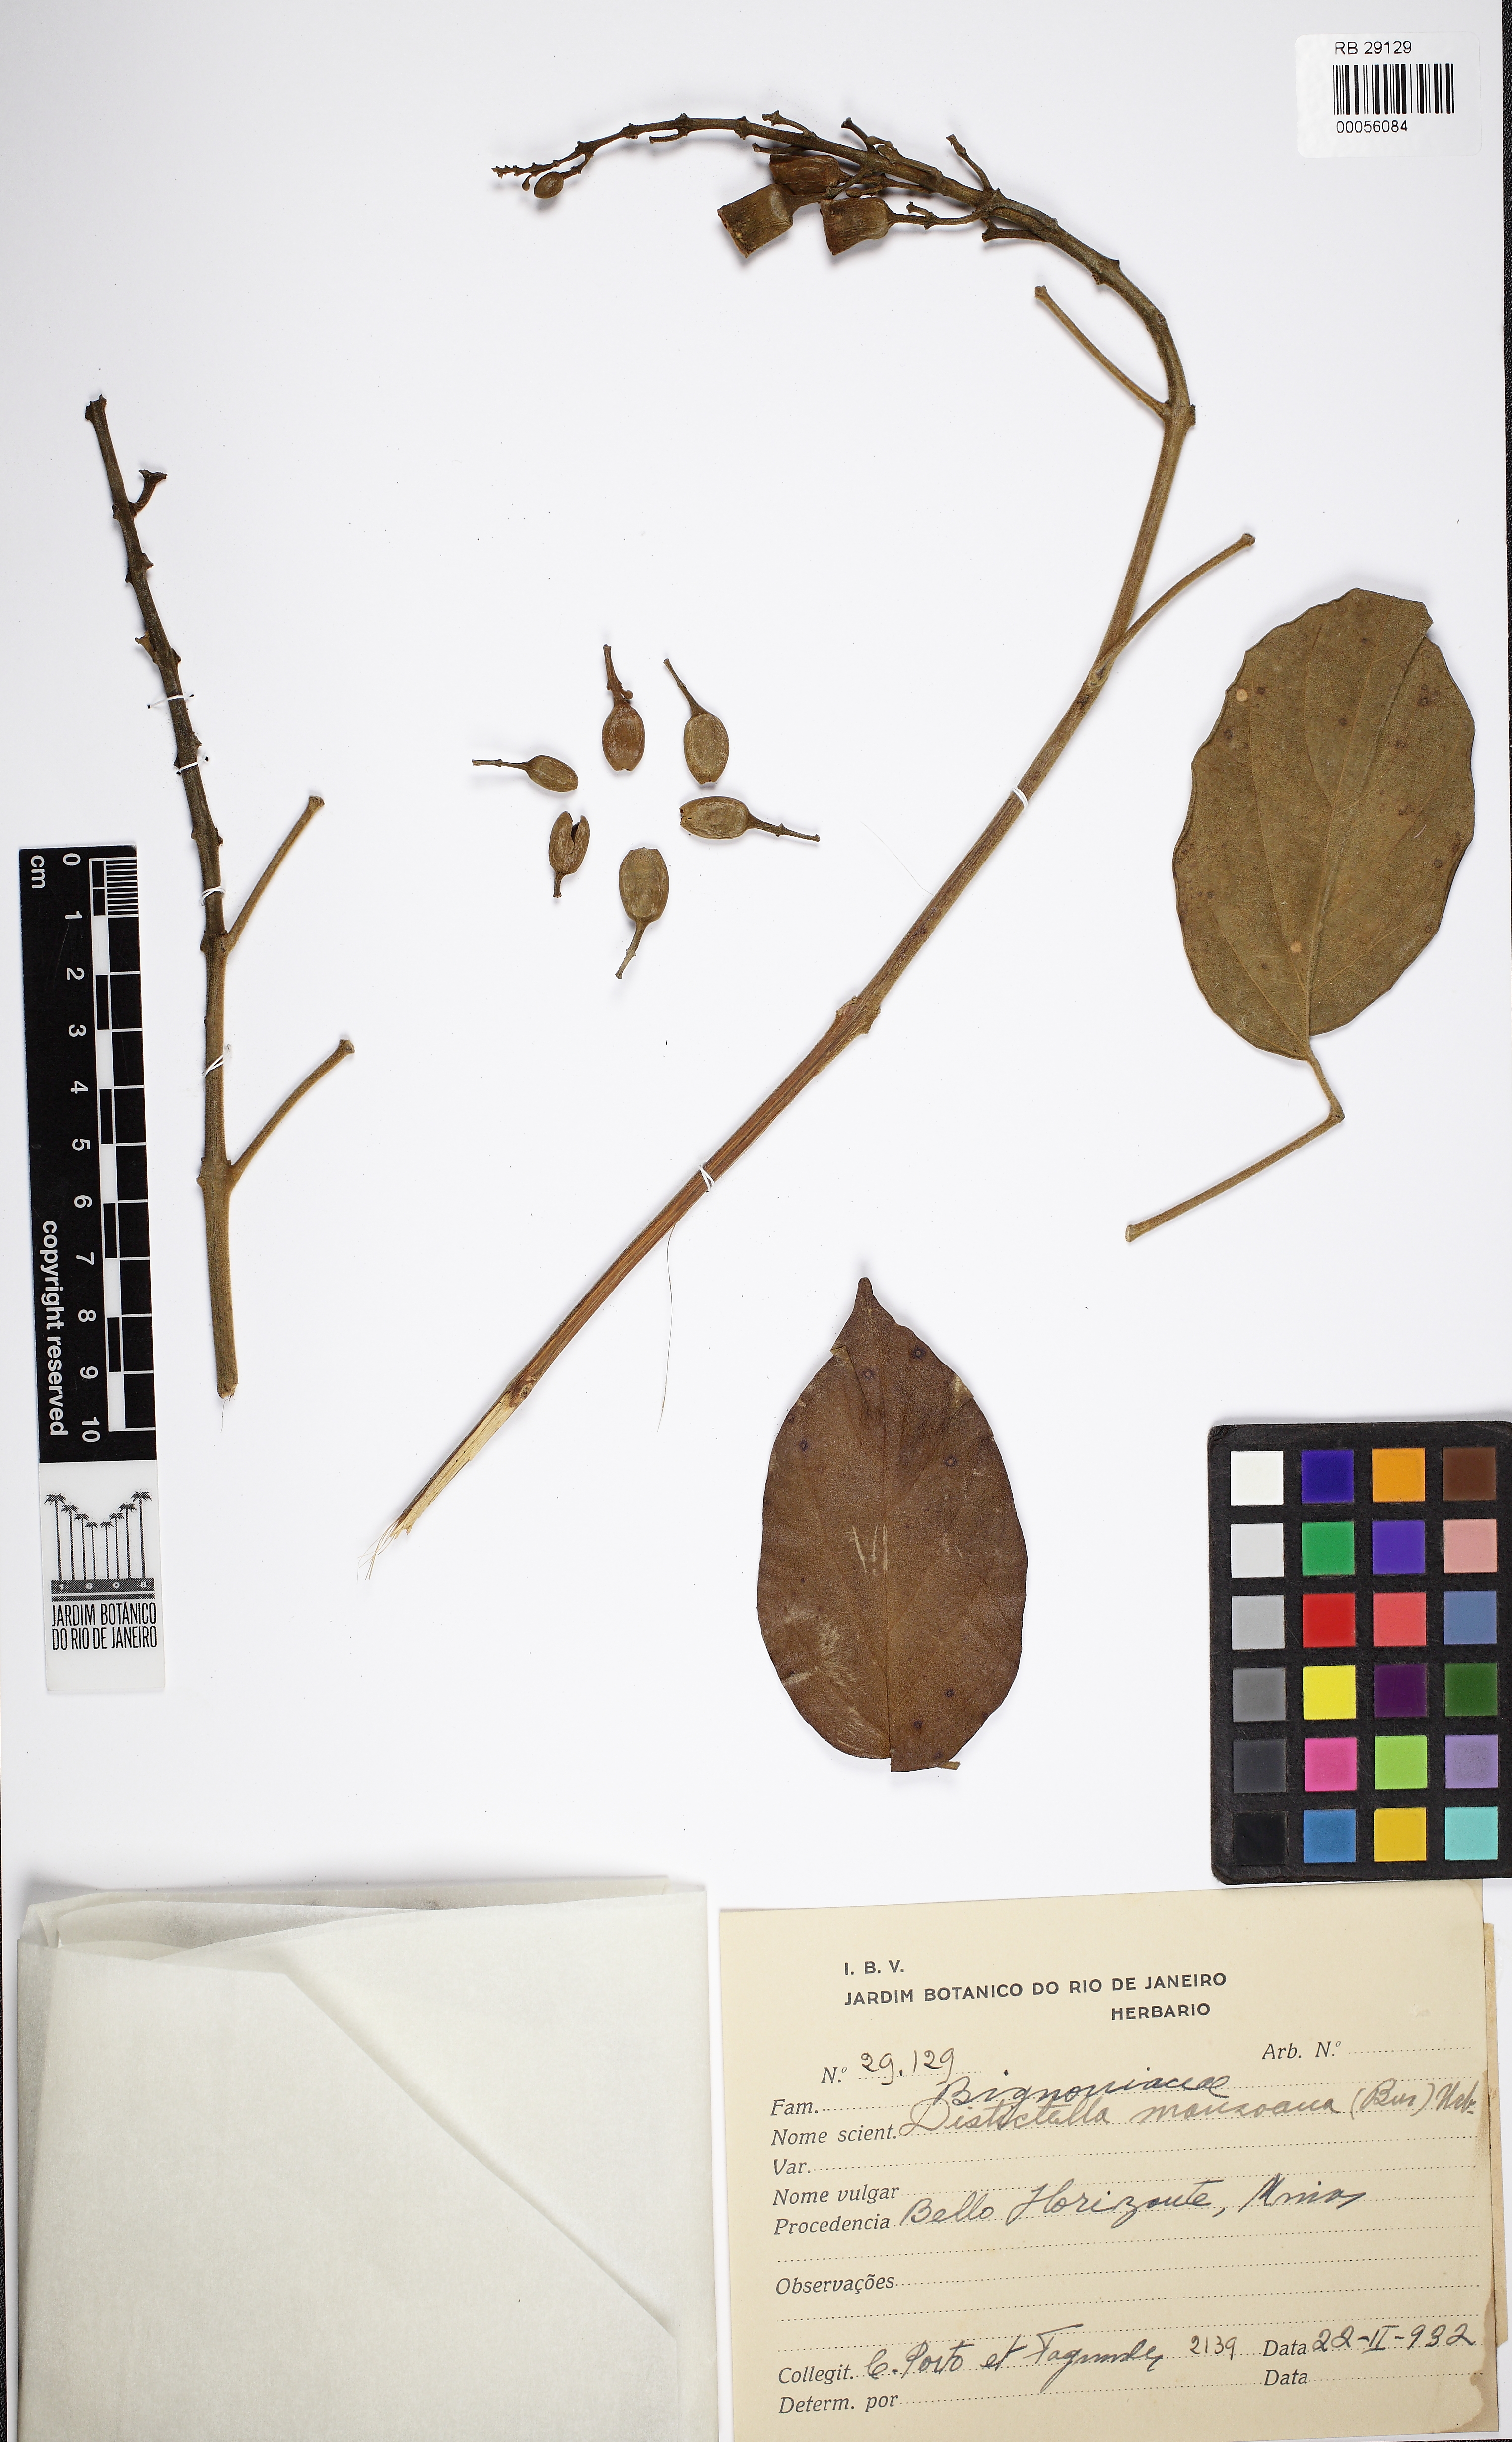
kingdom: Plantae
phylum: Tracheophyta
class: Magnoliopsida
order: Lamiales
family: Bignoniaceae
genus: Amphilophium
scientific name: Amphilophium mansoanum
